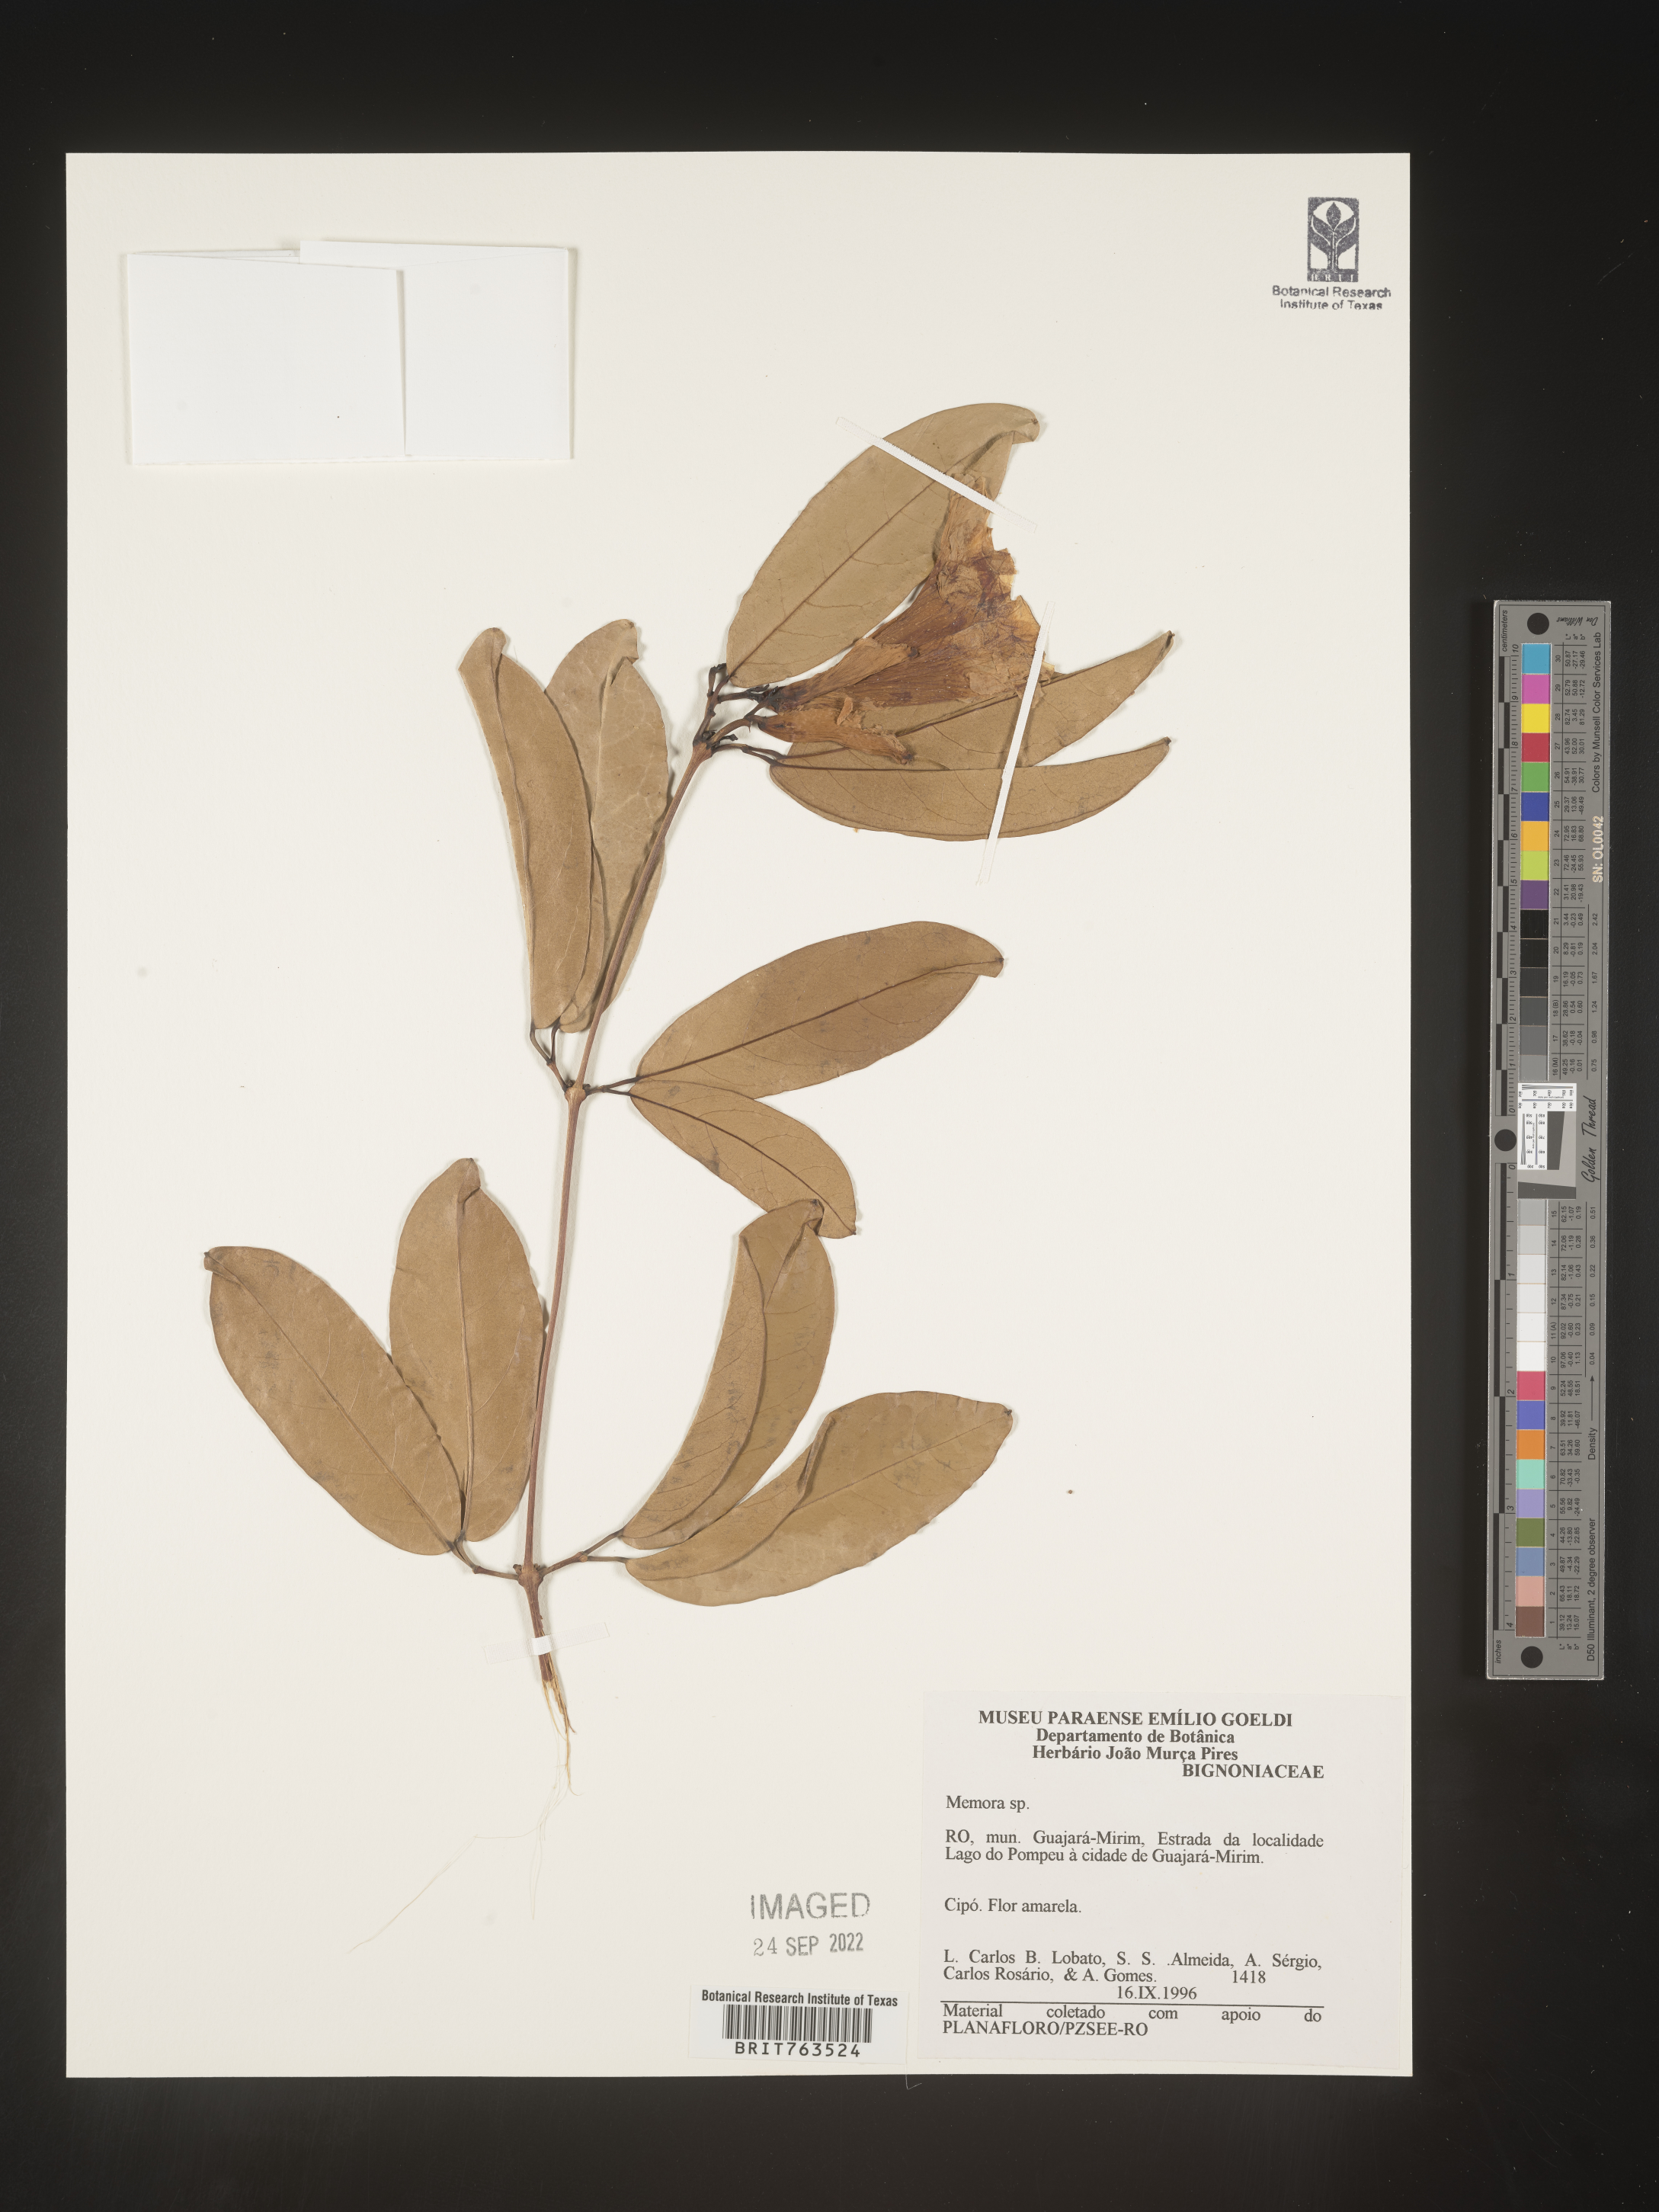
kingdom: Plantae
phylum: Tracheophyta
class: Magnoliopsida
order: Lamiales
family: Bignoniaceae
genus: Adenocalymma
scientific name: Adenocalymma
